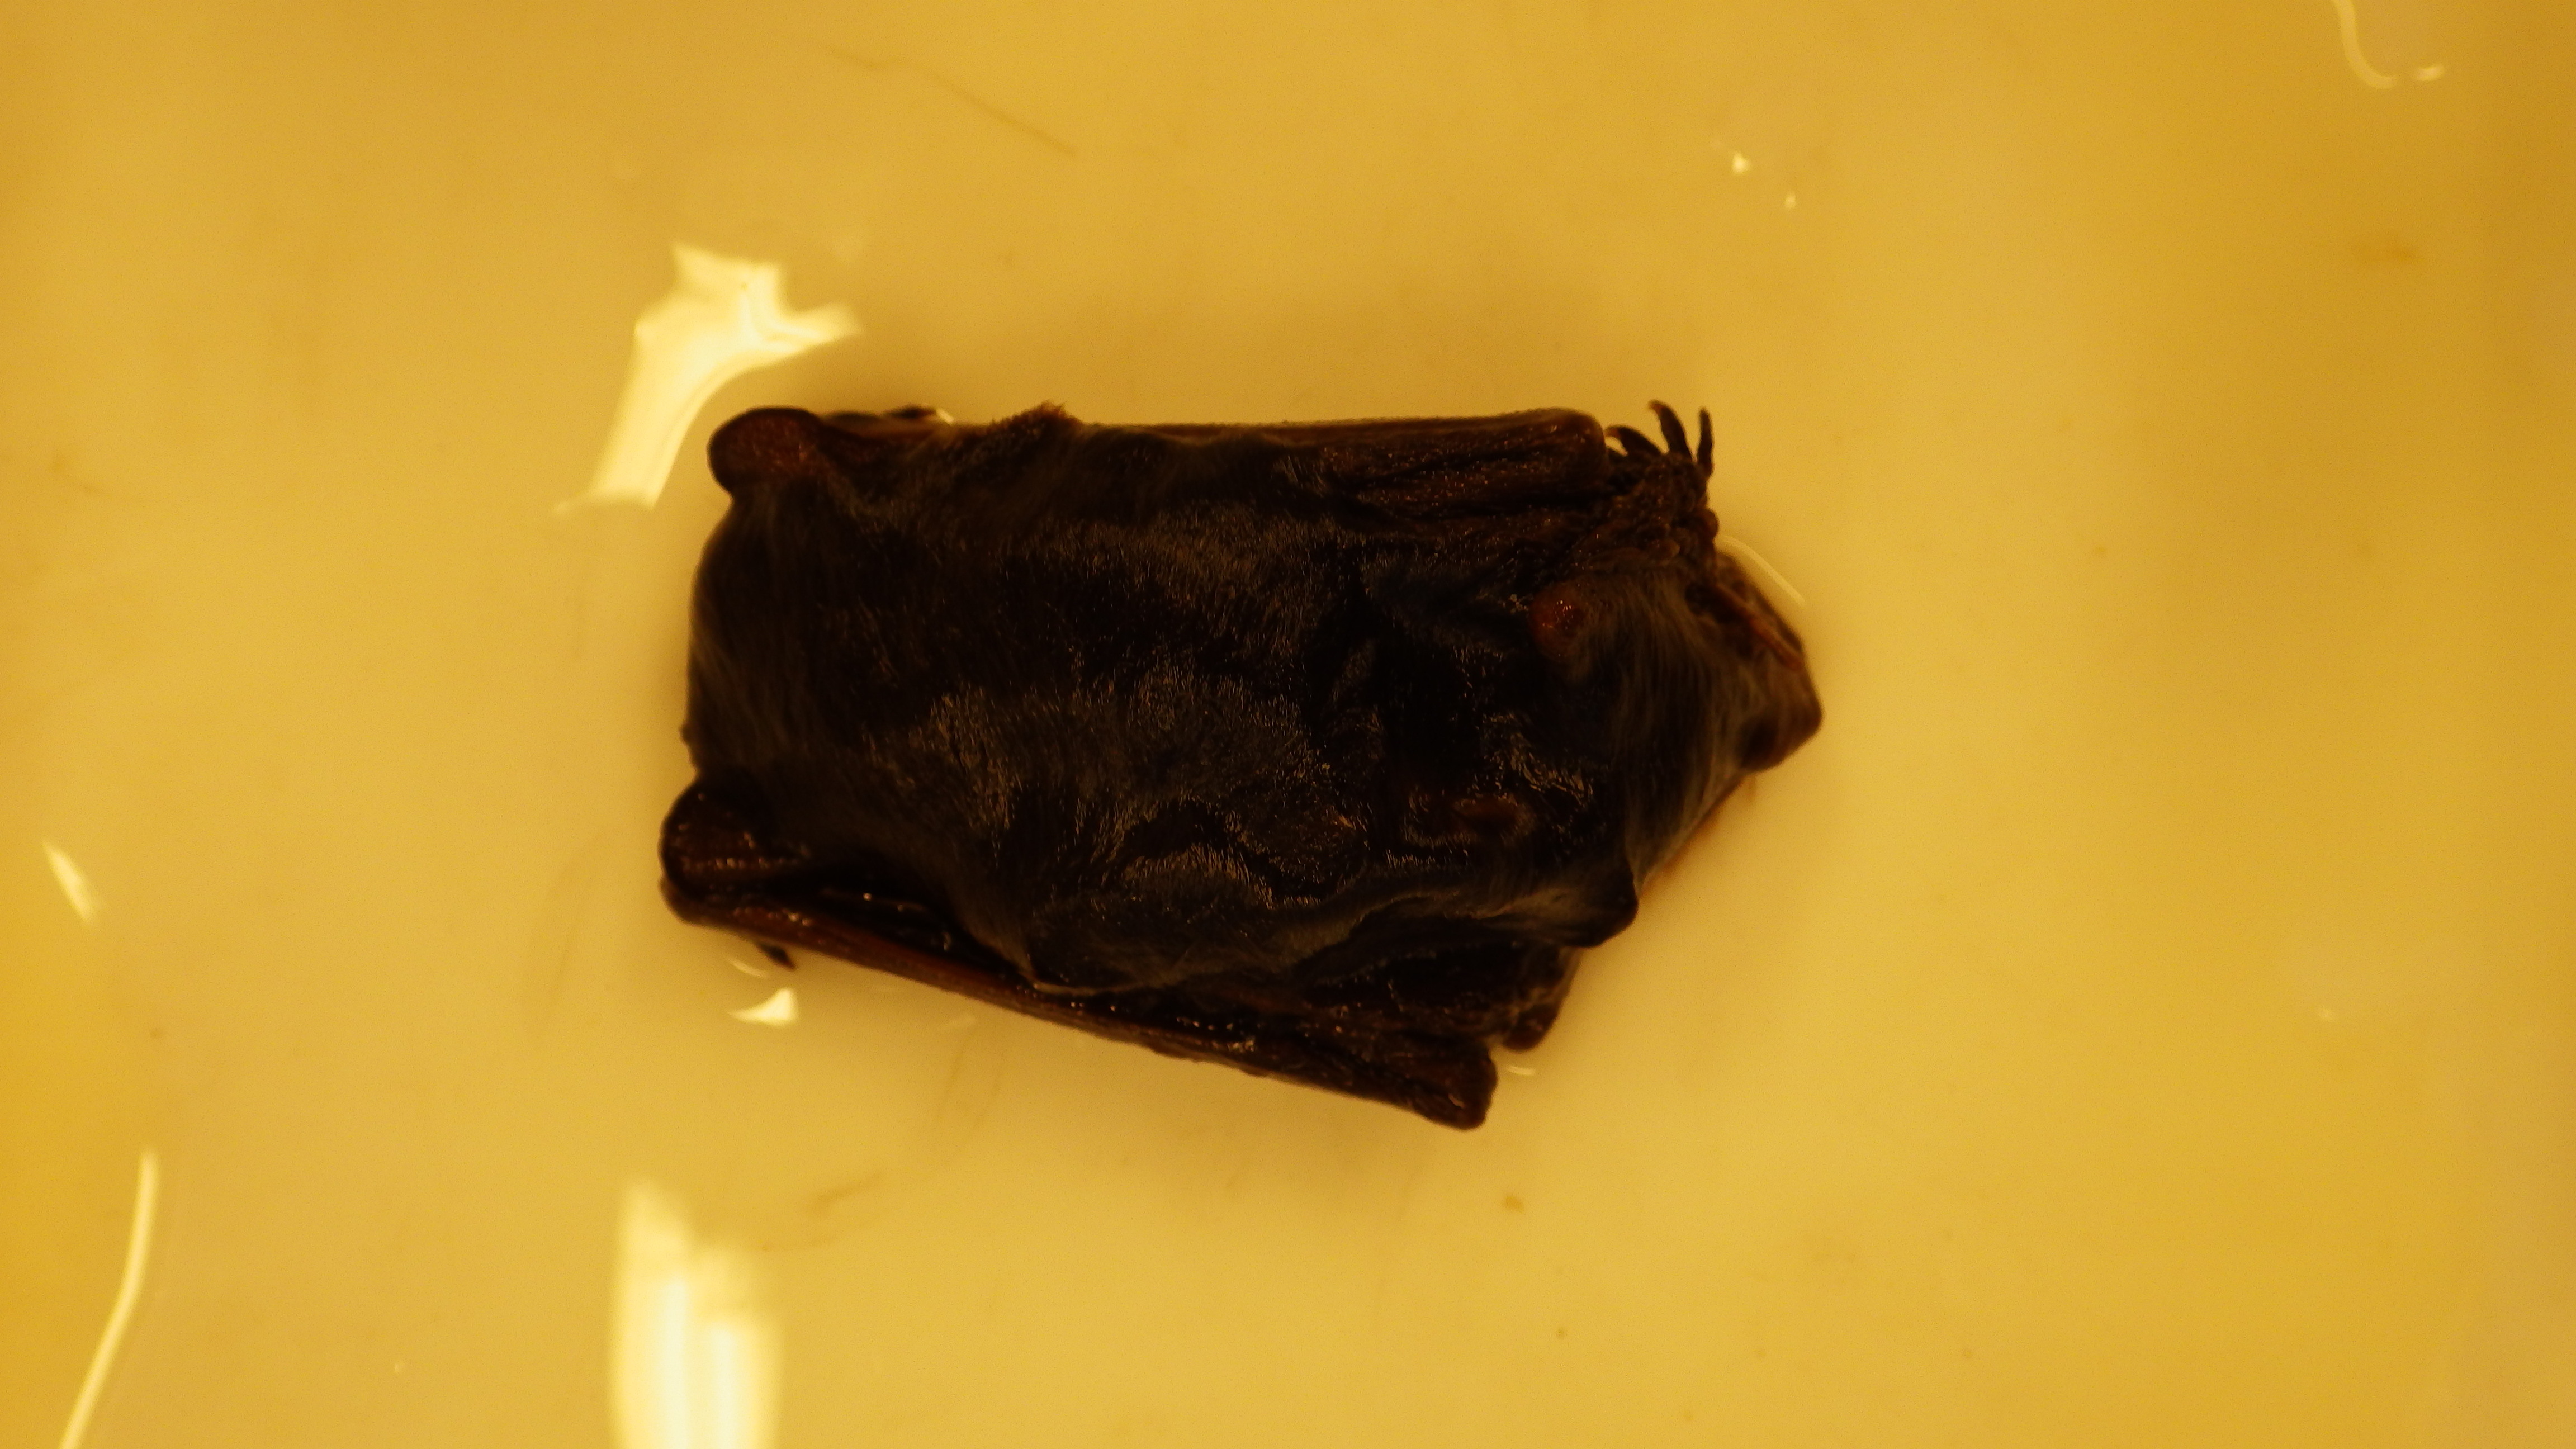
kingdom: Animalia
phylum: Chordata
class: Mammalia
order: Chiroptera
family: Vespertilionidae
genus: Vespertilio
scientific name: Vespertilio murinus
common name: Particolored bat
